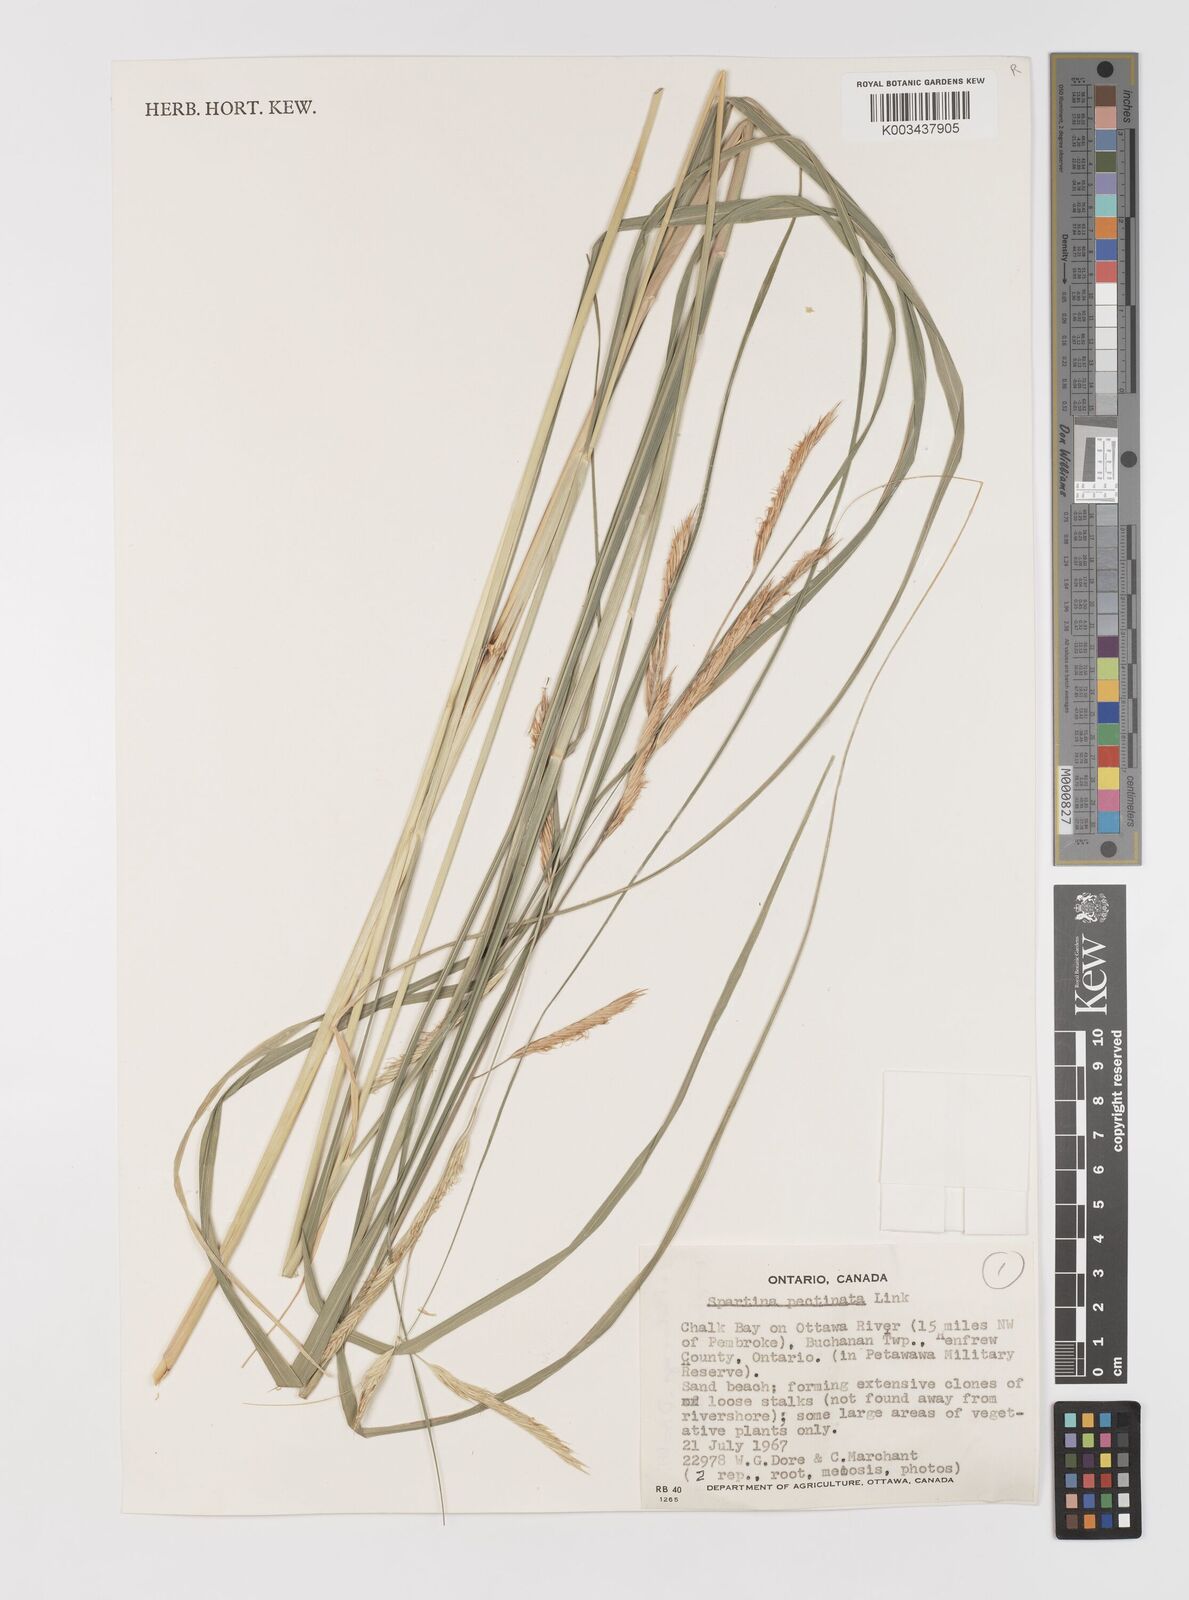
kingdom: Plantae
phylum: Tracheophyta
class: Liliopsida
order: Poales
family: Poaceae
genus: Sporobolus
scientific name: Sporobolus michauxianus
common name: Freshwater cordgrass
